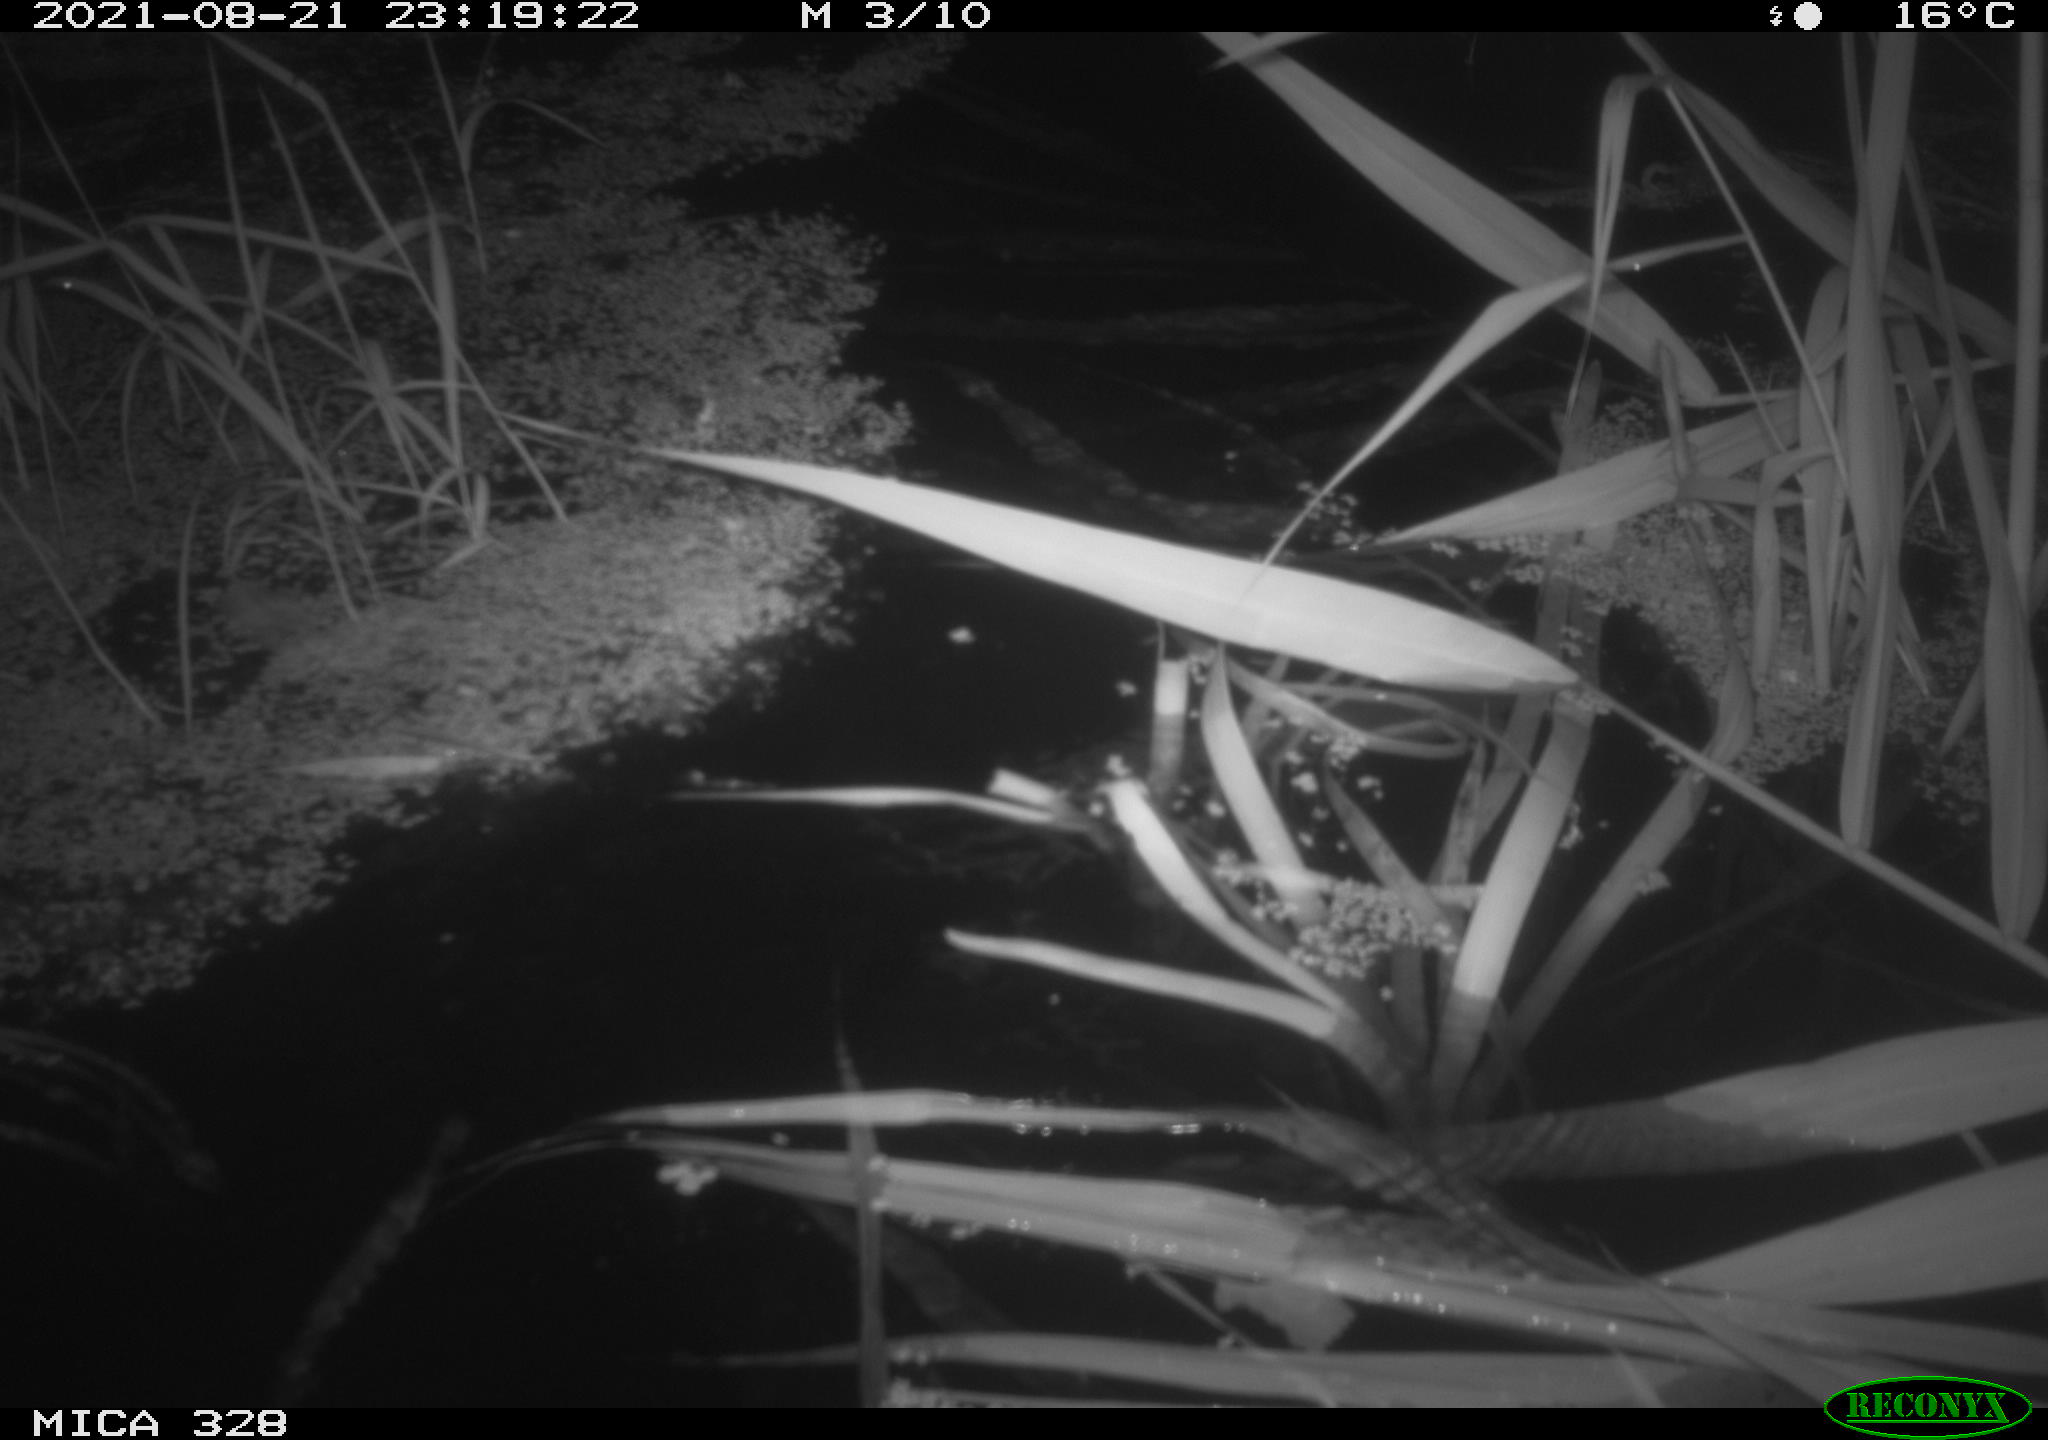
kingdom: Animalia
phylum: Chordata
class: Mammalia
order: Rodentia
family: Cricetidae
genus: Ondatra
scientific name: Ondatra zibethicus
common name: Muskrat
